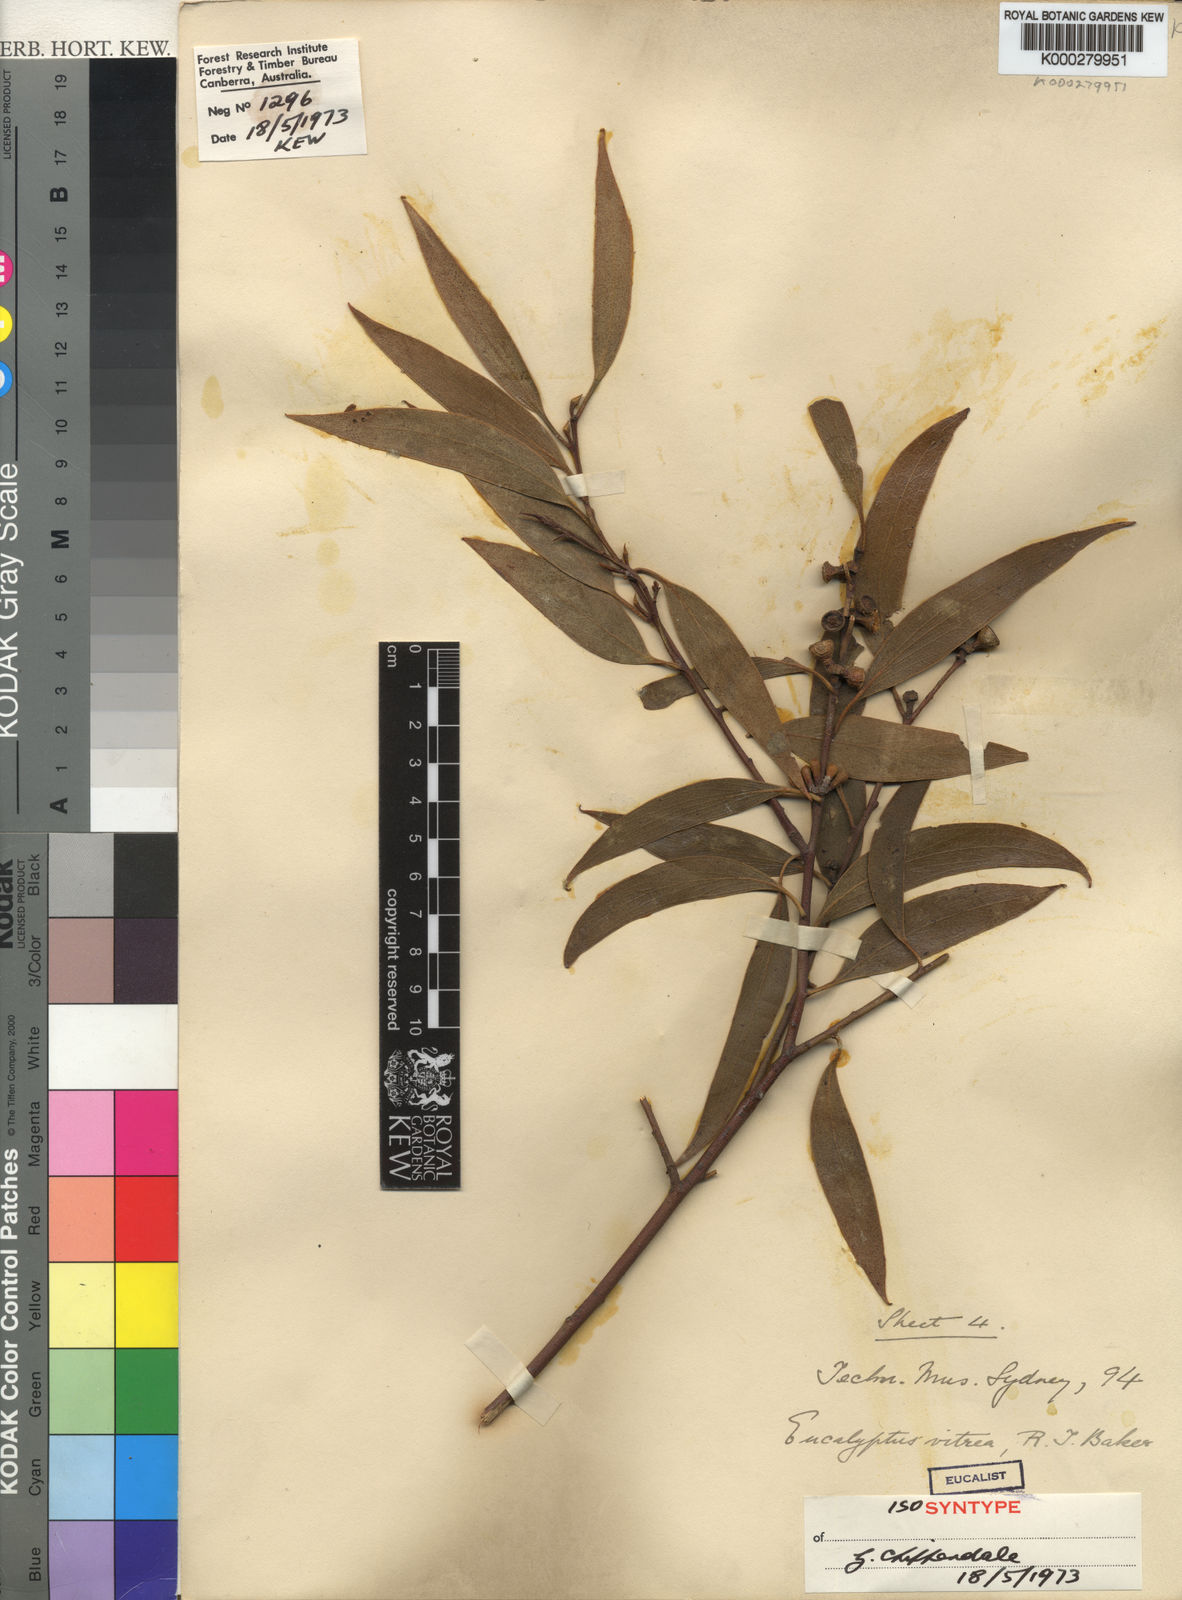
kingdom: Plantae
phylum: Tracheophyta
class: Magnoliopsida
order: Myrtales
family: Myrtaceae
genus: Eucalyptus
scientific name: Eucalyptus vitrea
